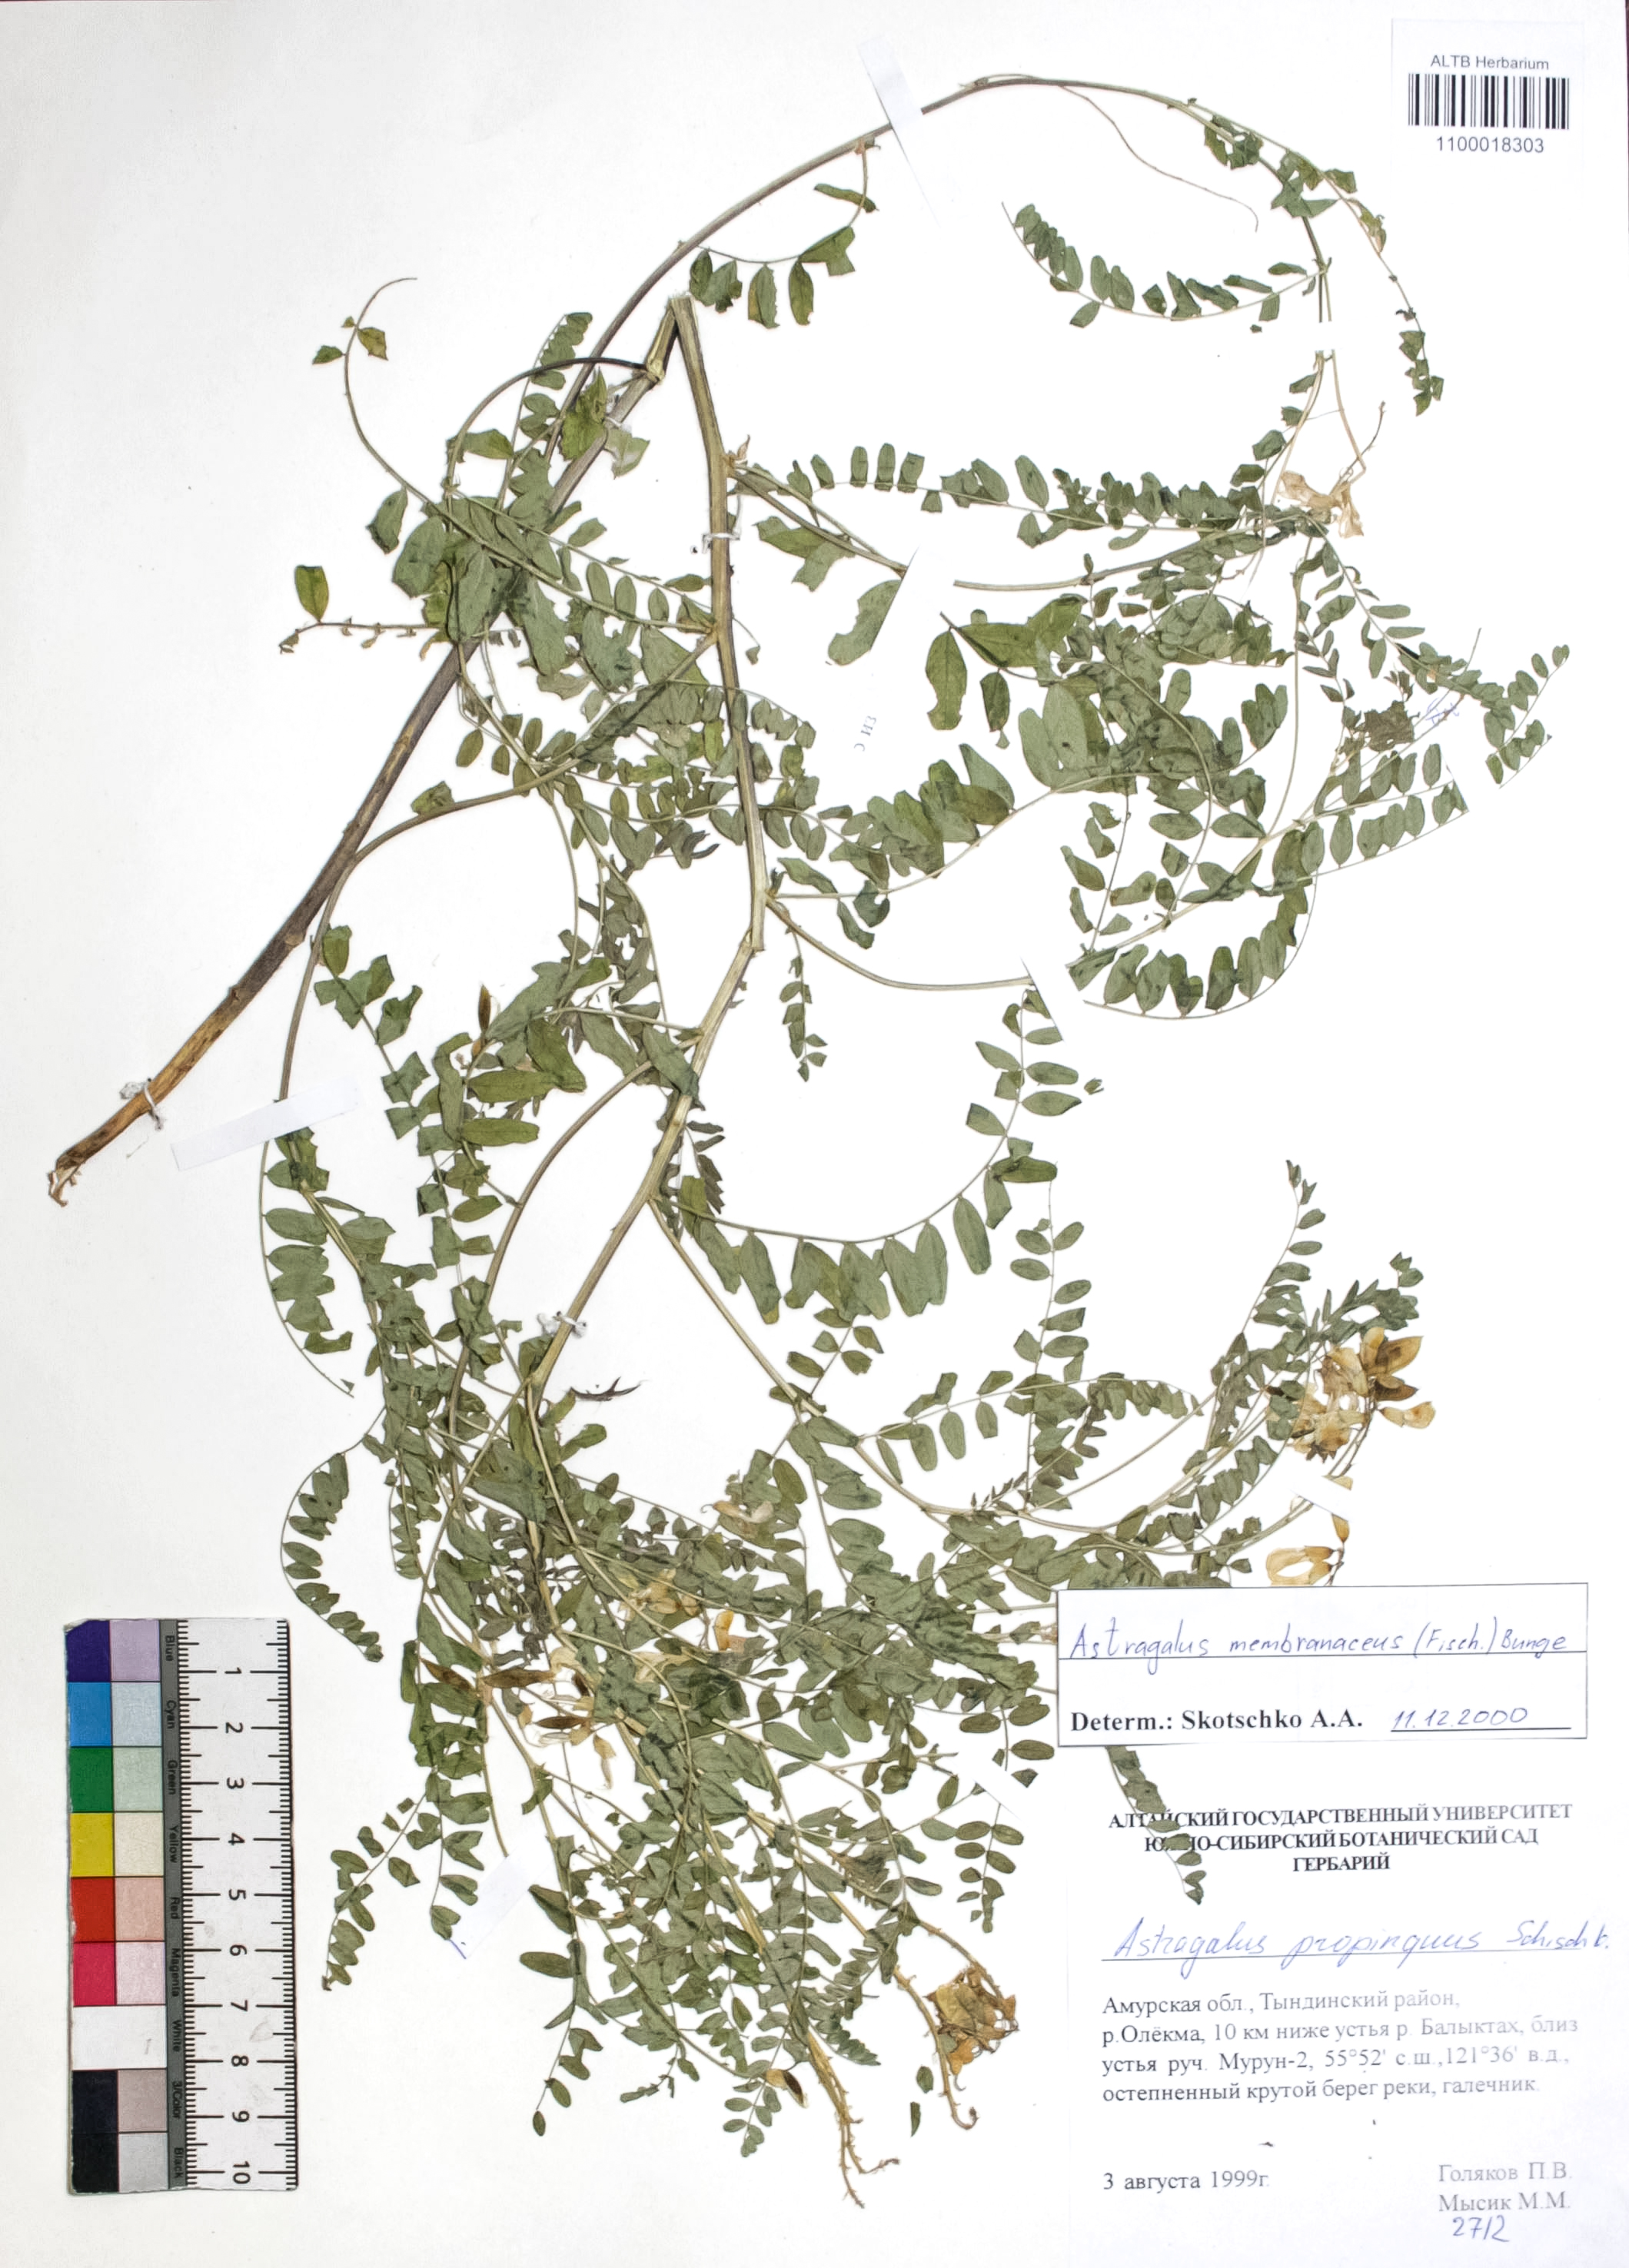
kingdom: Plantae
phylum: Tracheophyta
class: Magnoliopsida
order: Fabales
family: Fabaceae
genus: Astragalus
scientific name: Astragalus mongholicus
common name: Membranous milk-vetch
